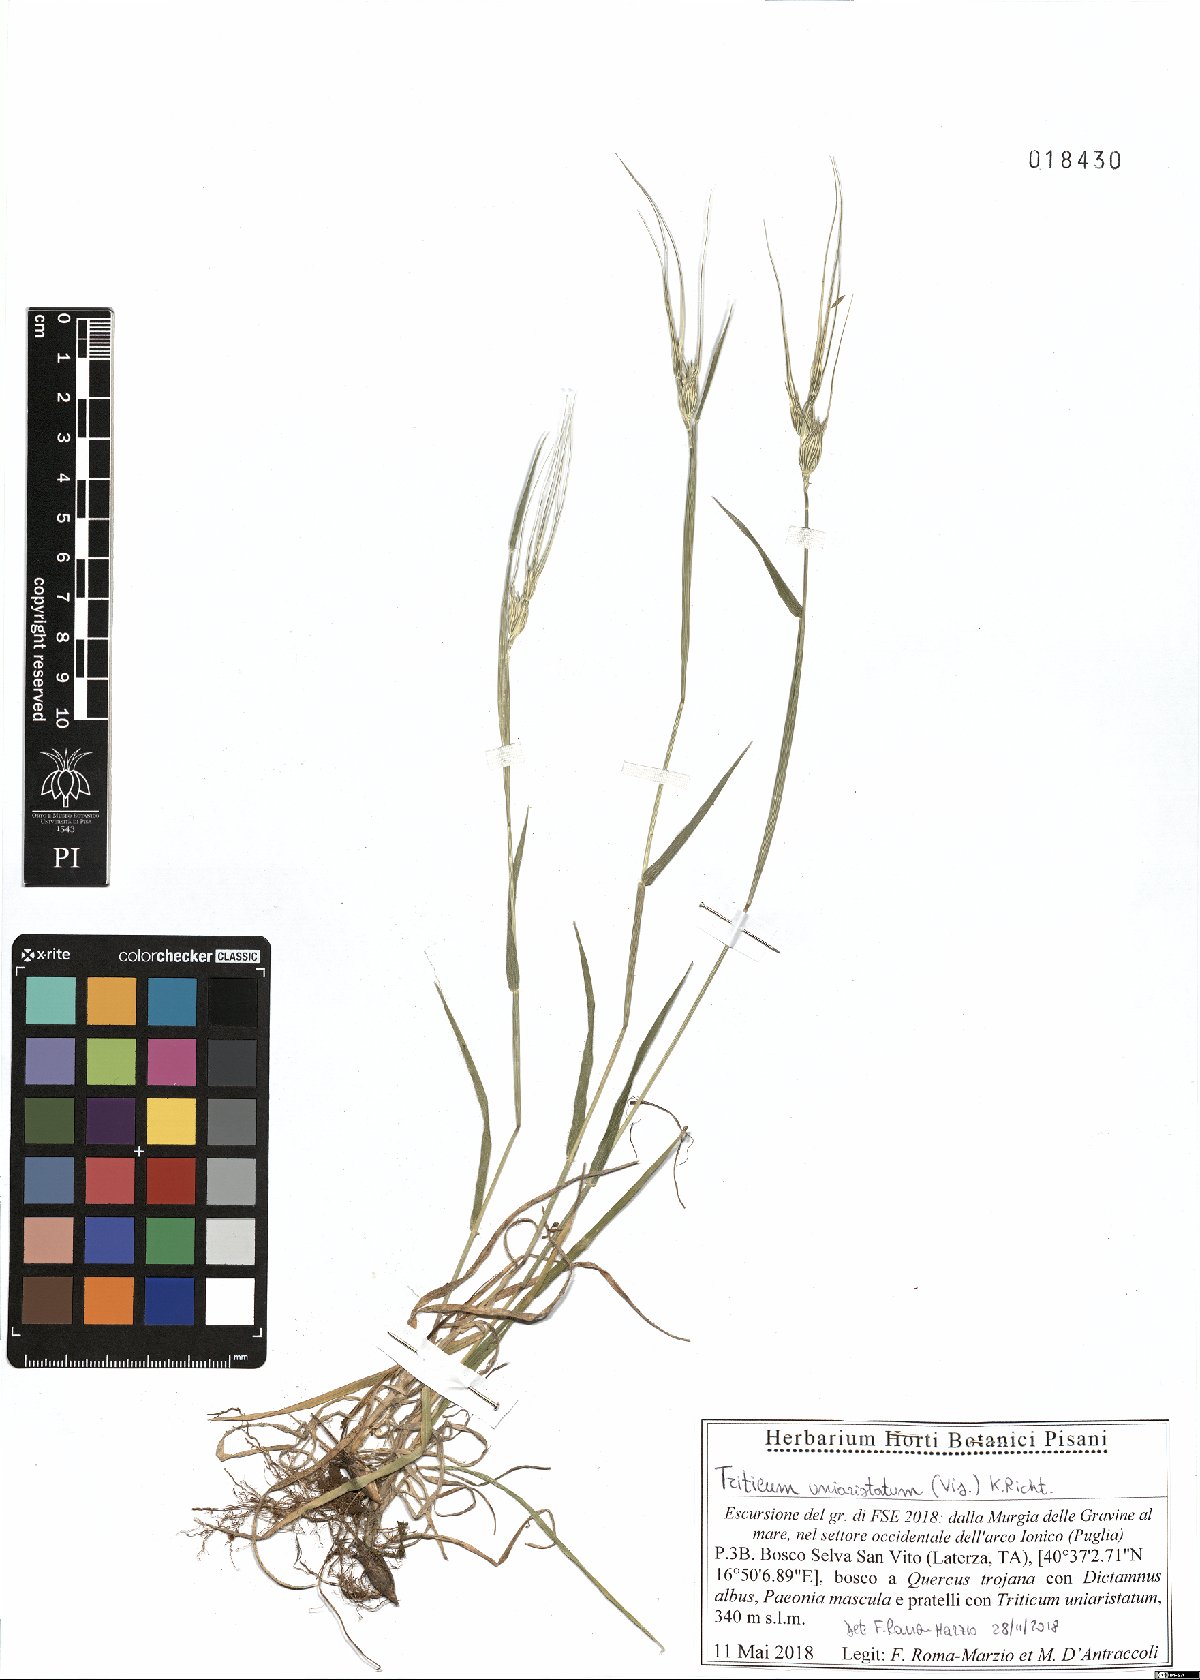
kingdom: Plantae
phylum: Tracheophyta
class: Liliopsida
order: Poales
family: Poaceae
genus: Aegilops
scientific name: Aegilops uniaristata
